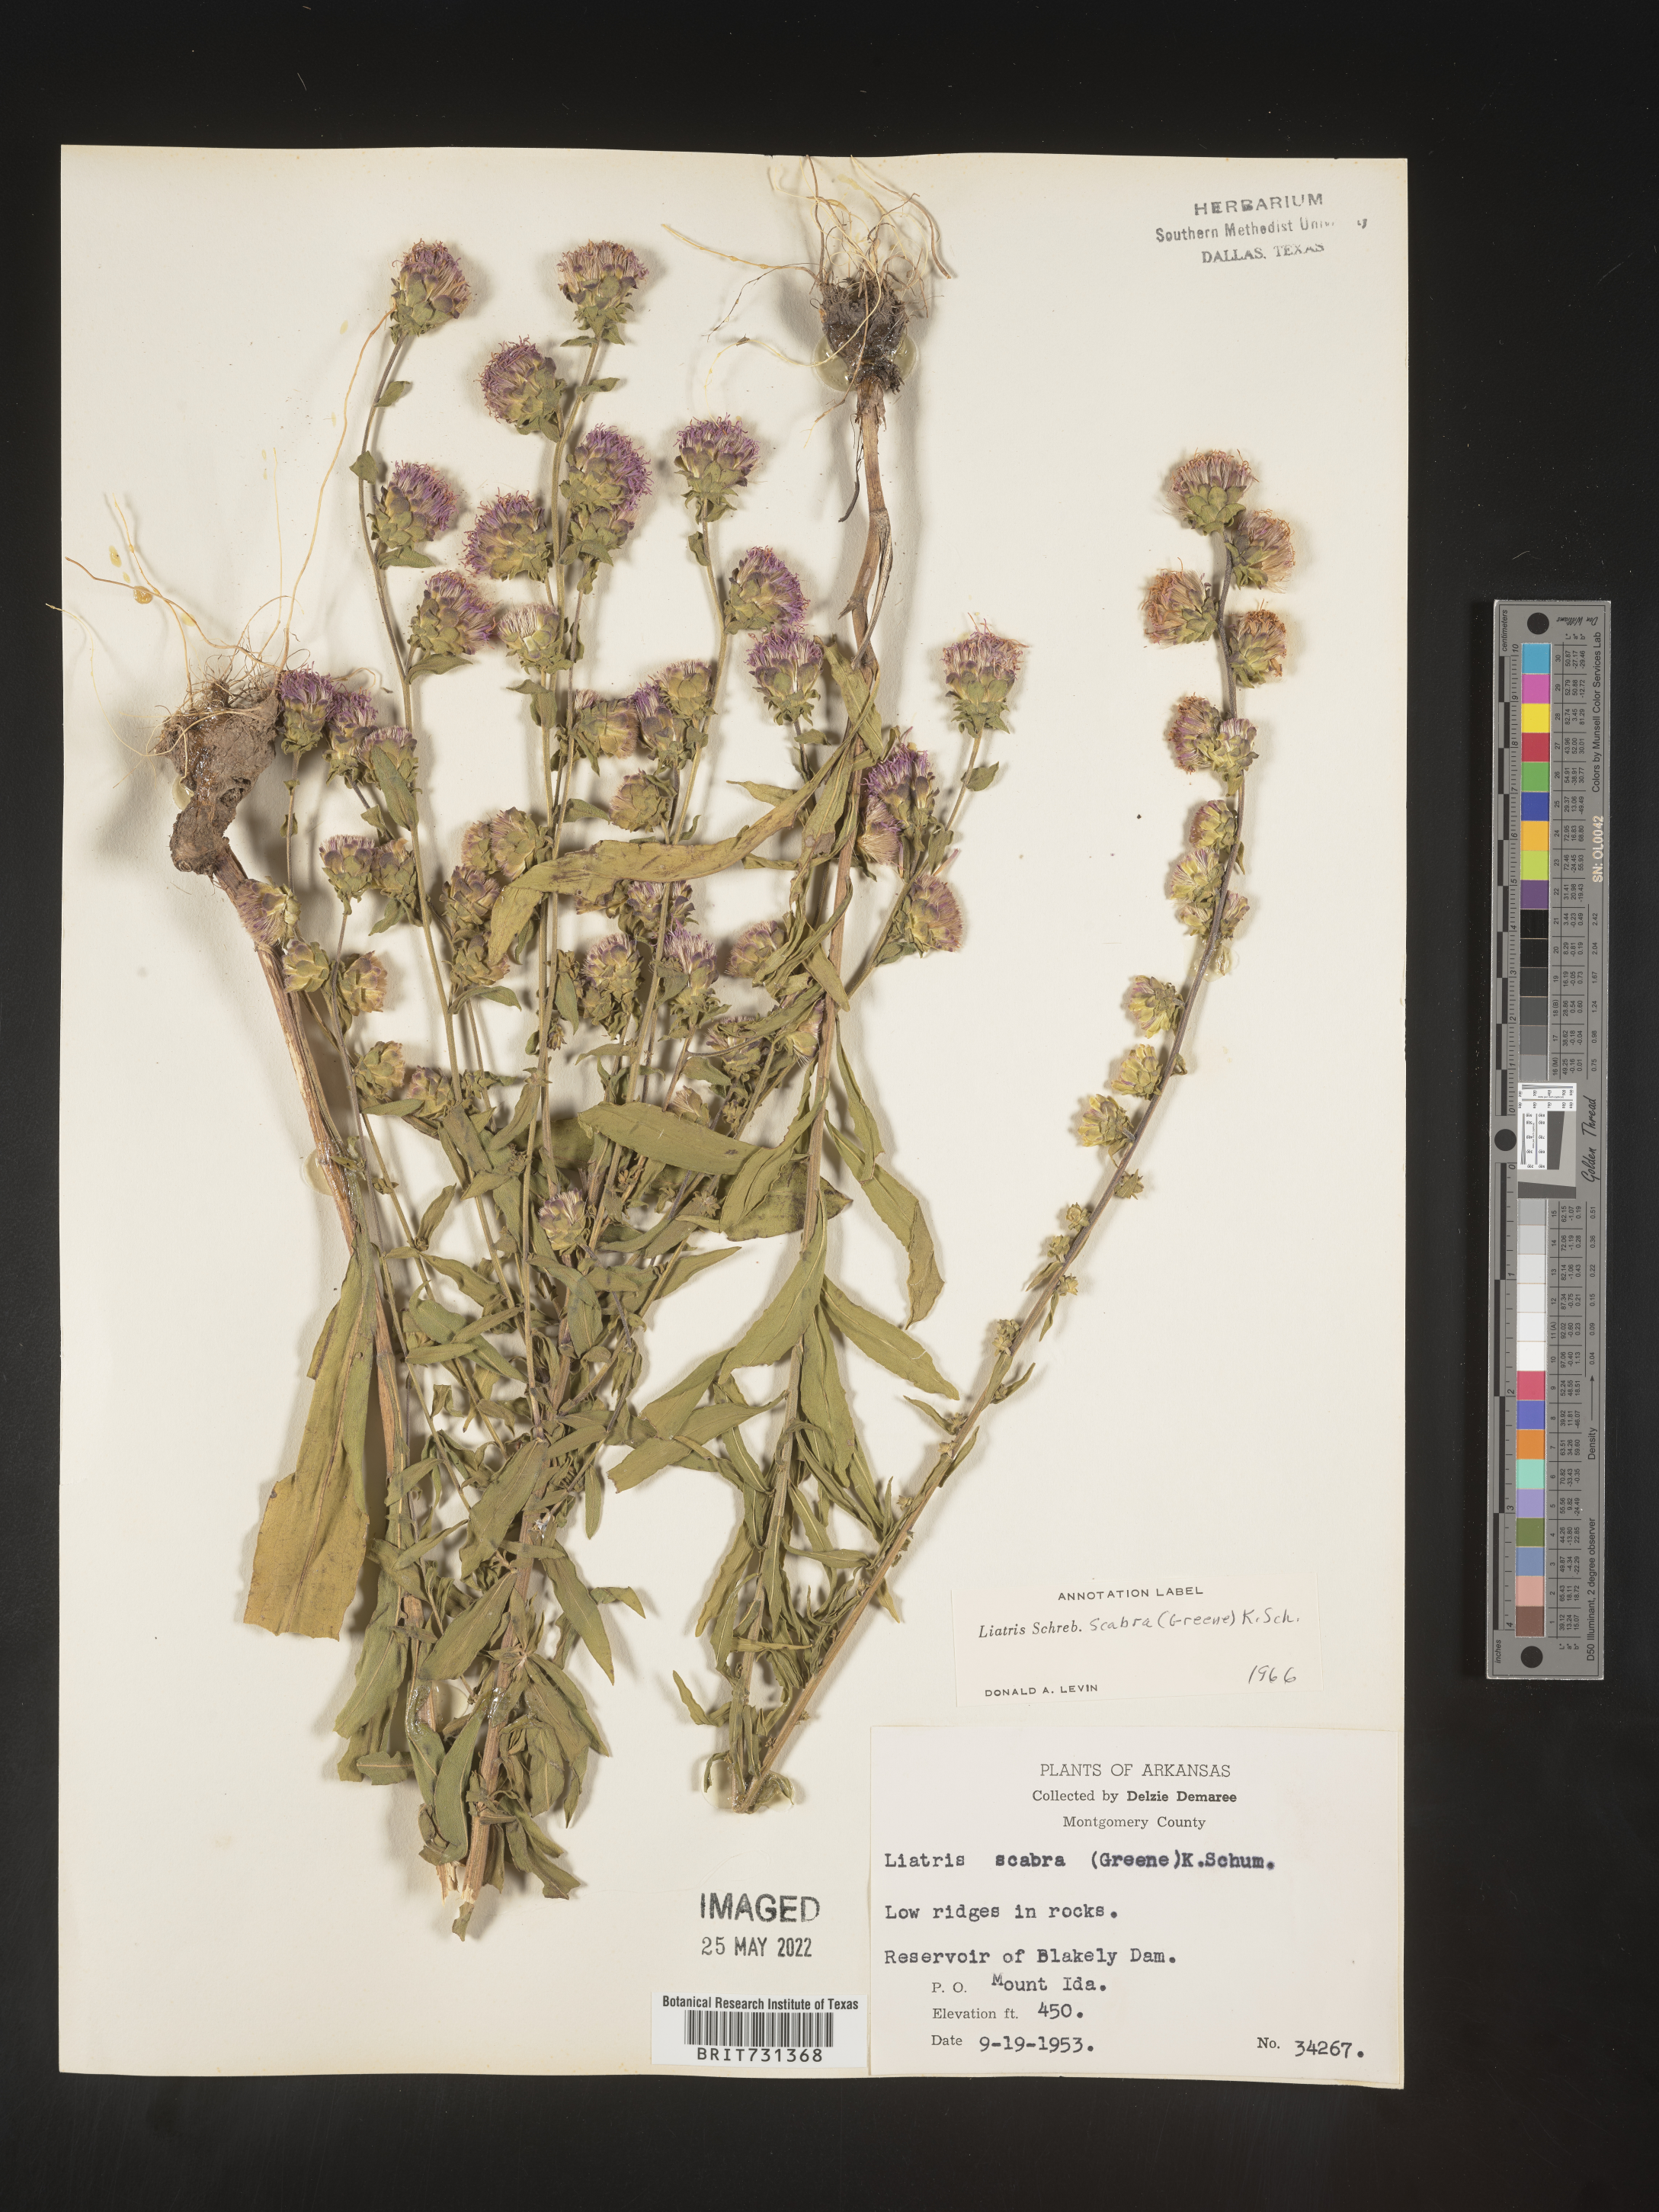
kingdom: Plantae
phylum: Tracheophyta
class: Magnoliopsida
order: Asterales
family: Asteraceae
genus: Liatris
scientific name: Liatris squarrulosa
